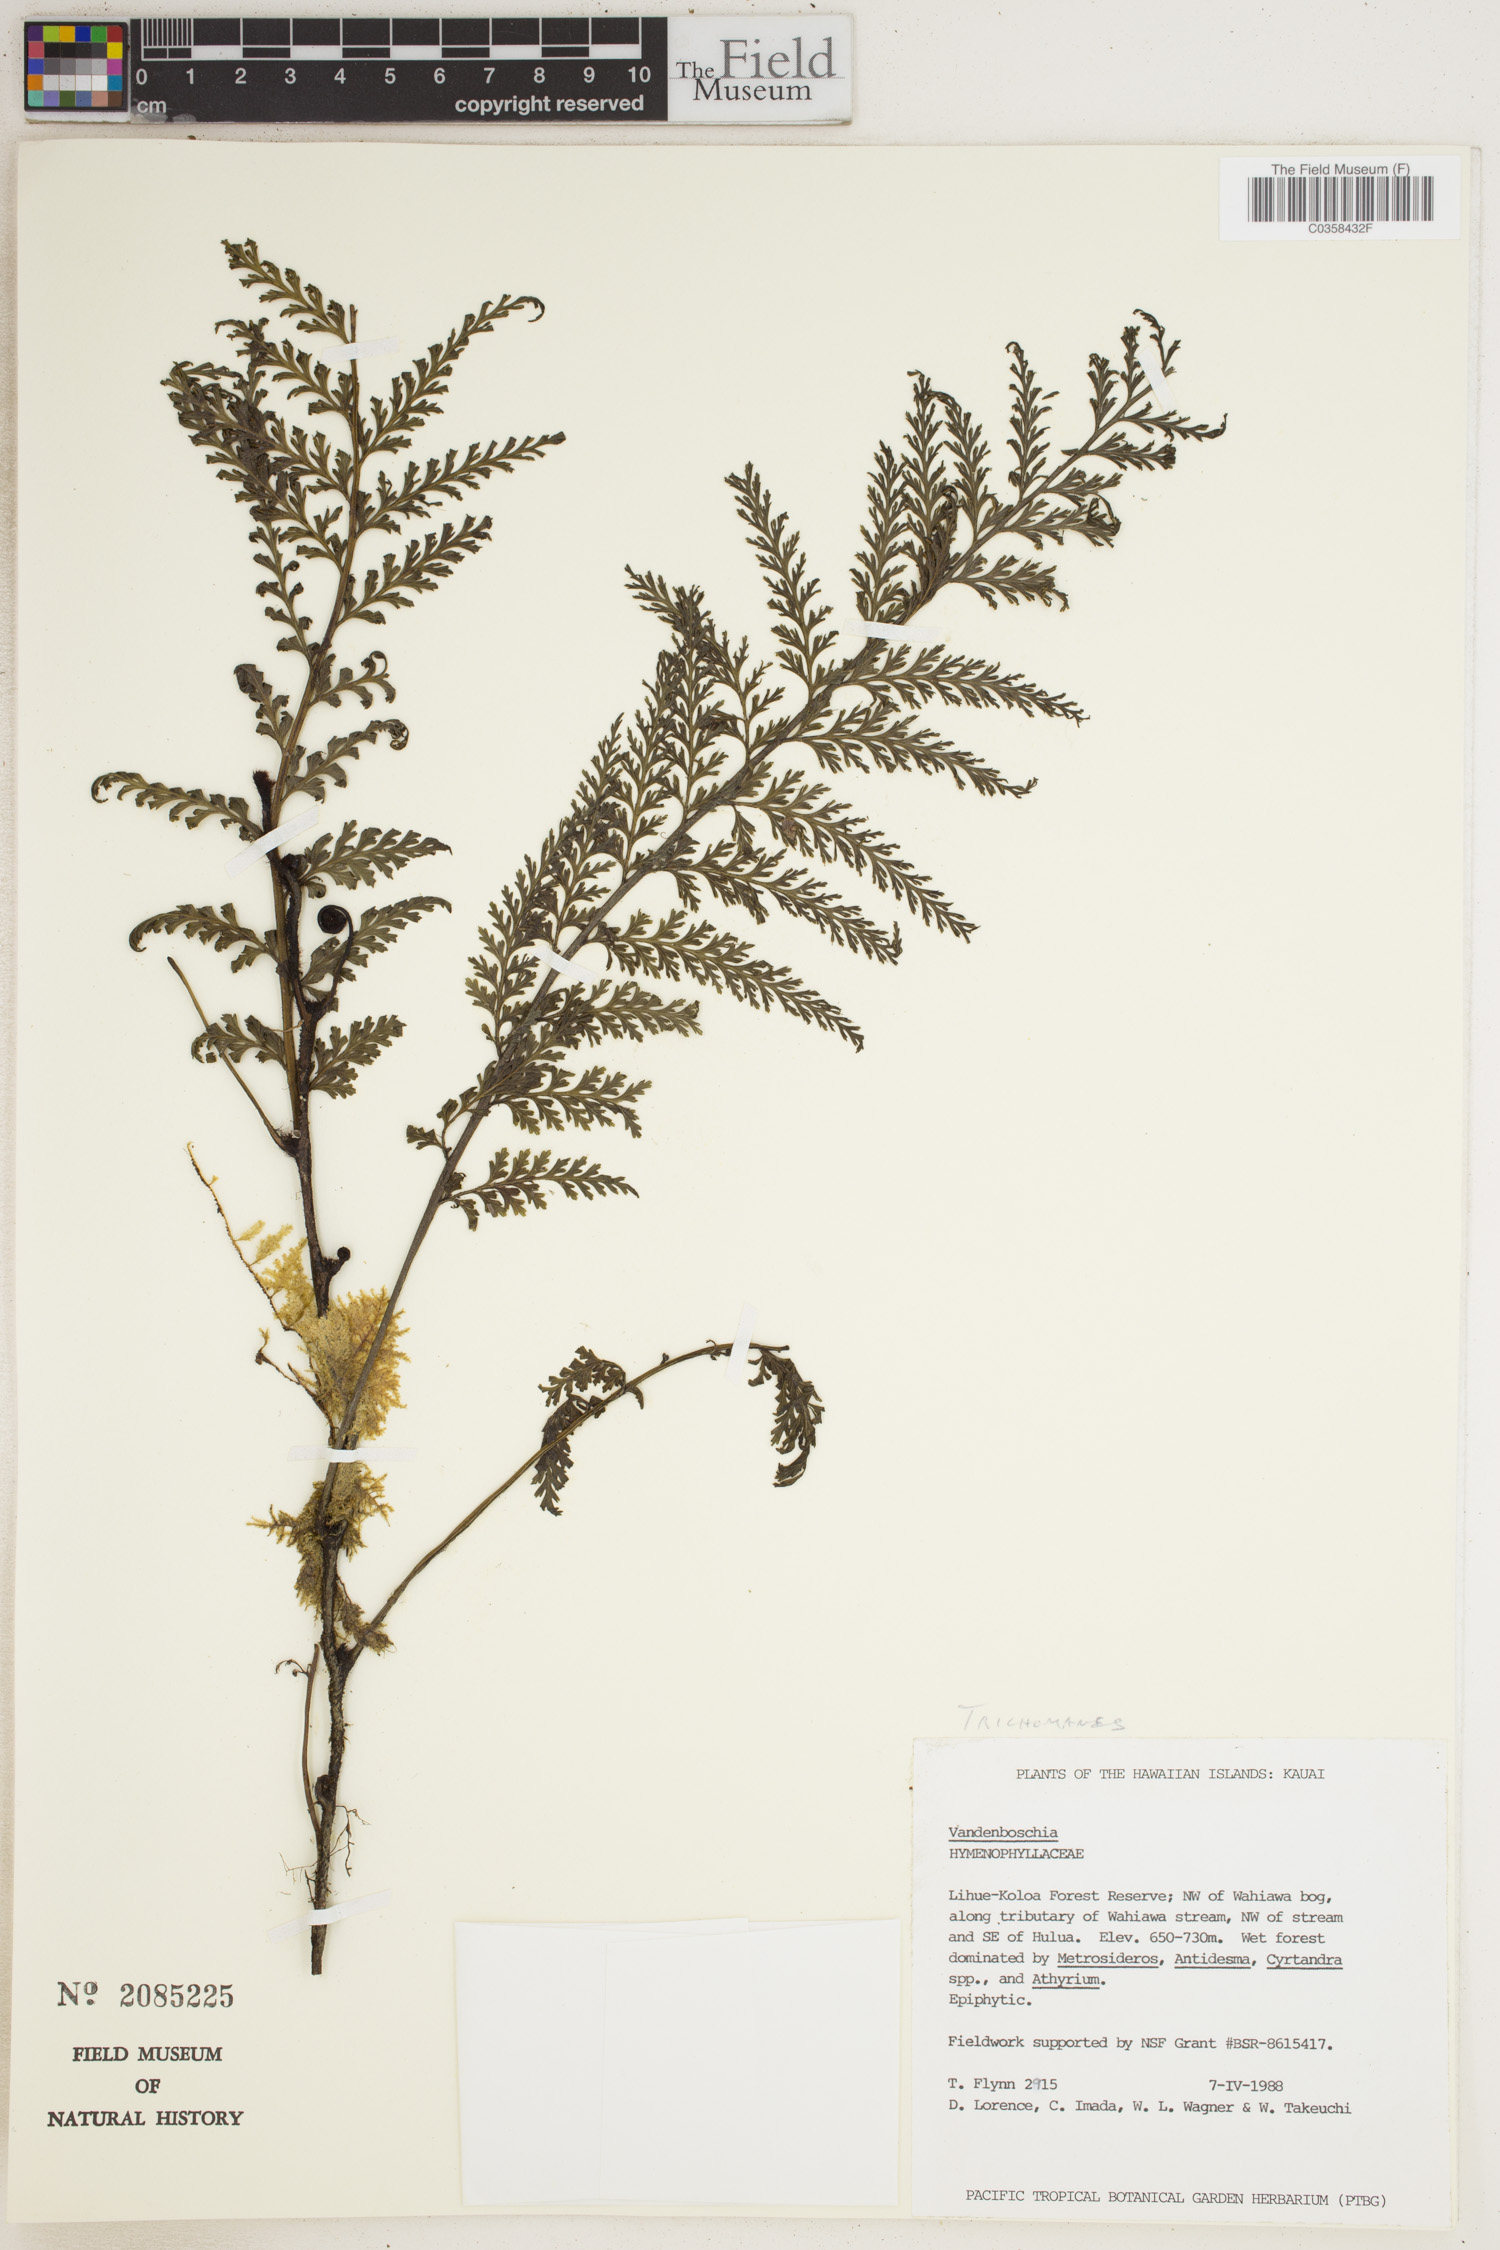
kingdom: Plantae
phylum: Tracheophyta
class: Polypodiopsida
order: Hymenophyllales
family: Hymenophyllaceae
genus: Trichomanes
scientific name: Trichomanes
